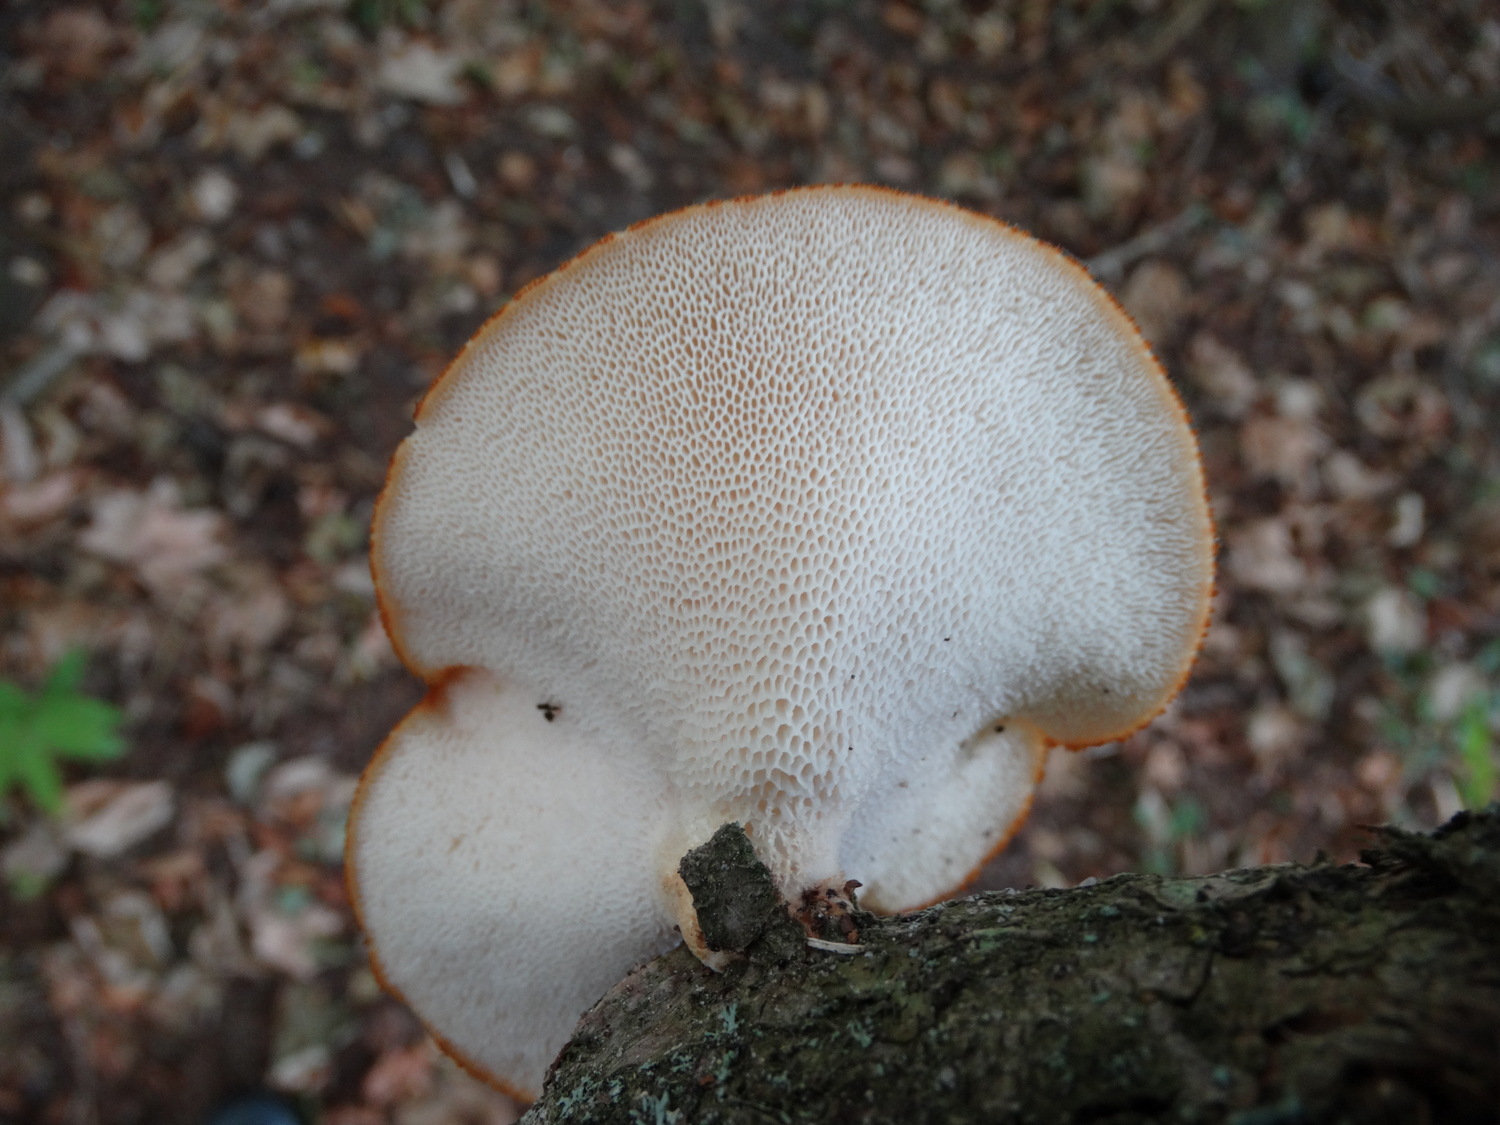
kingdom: Fungi
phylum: Basidiomycota
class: Agaricomycetes
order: Polyporales
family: Polyporaceae
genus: Polyporus
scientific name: Polyporus tuberaster
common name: knoldet stilkporesvamp
